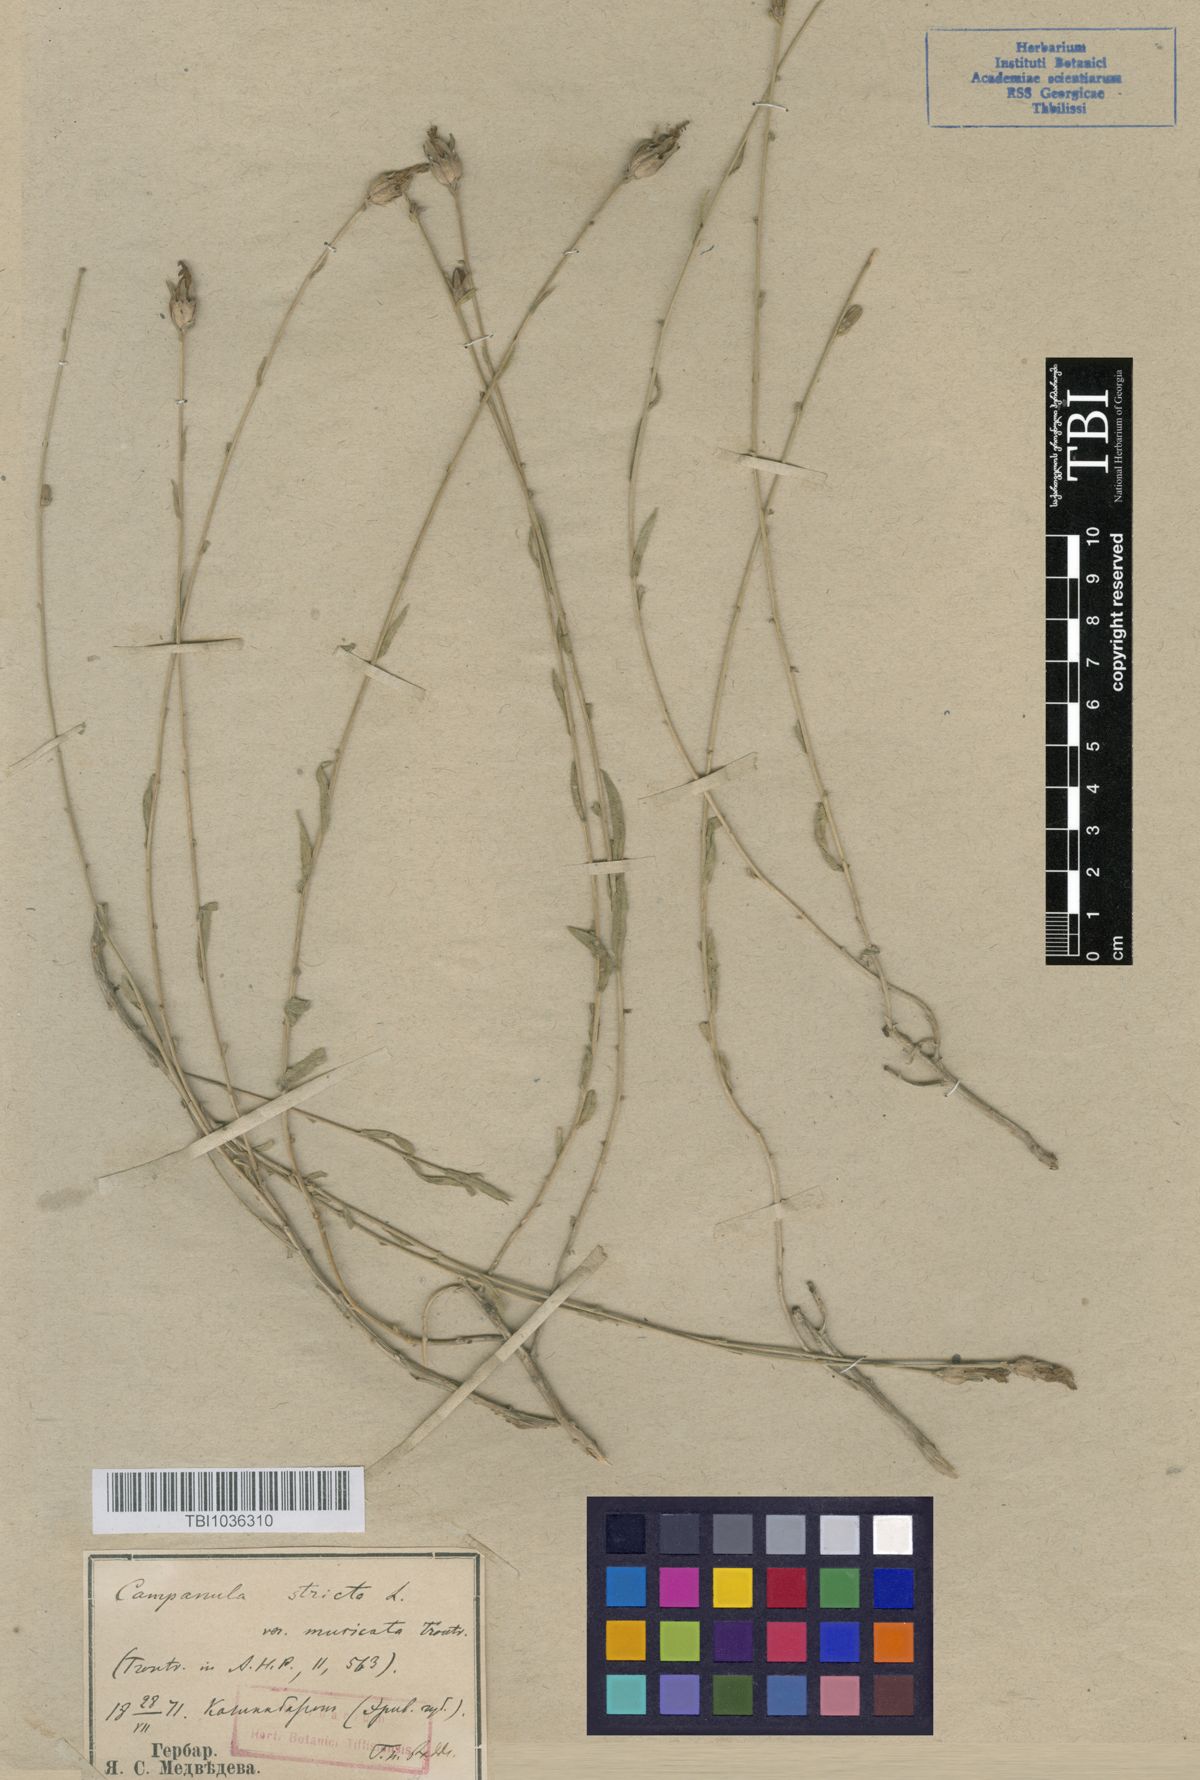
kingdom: Plantae
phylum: Tracheophyta
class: Magnoliopsida
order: Asterales
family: Campanulaceae
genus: Campanula
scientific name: Campanula stricta
